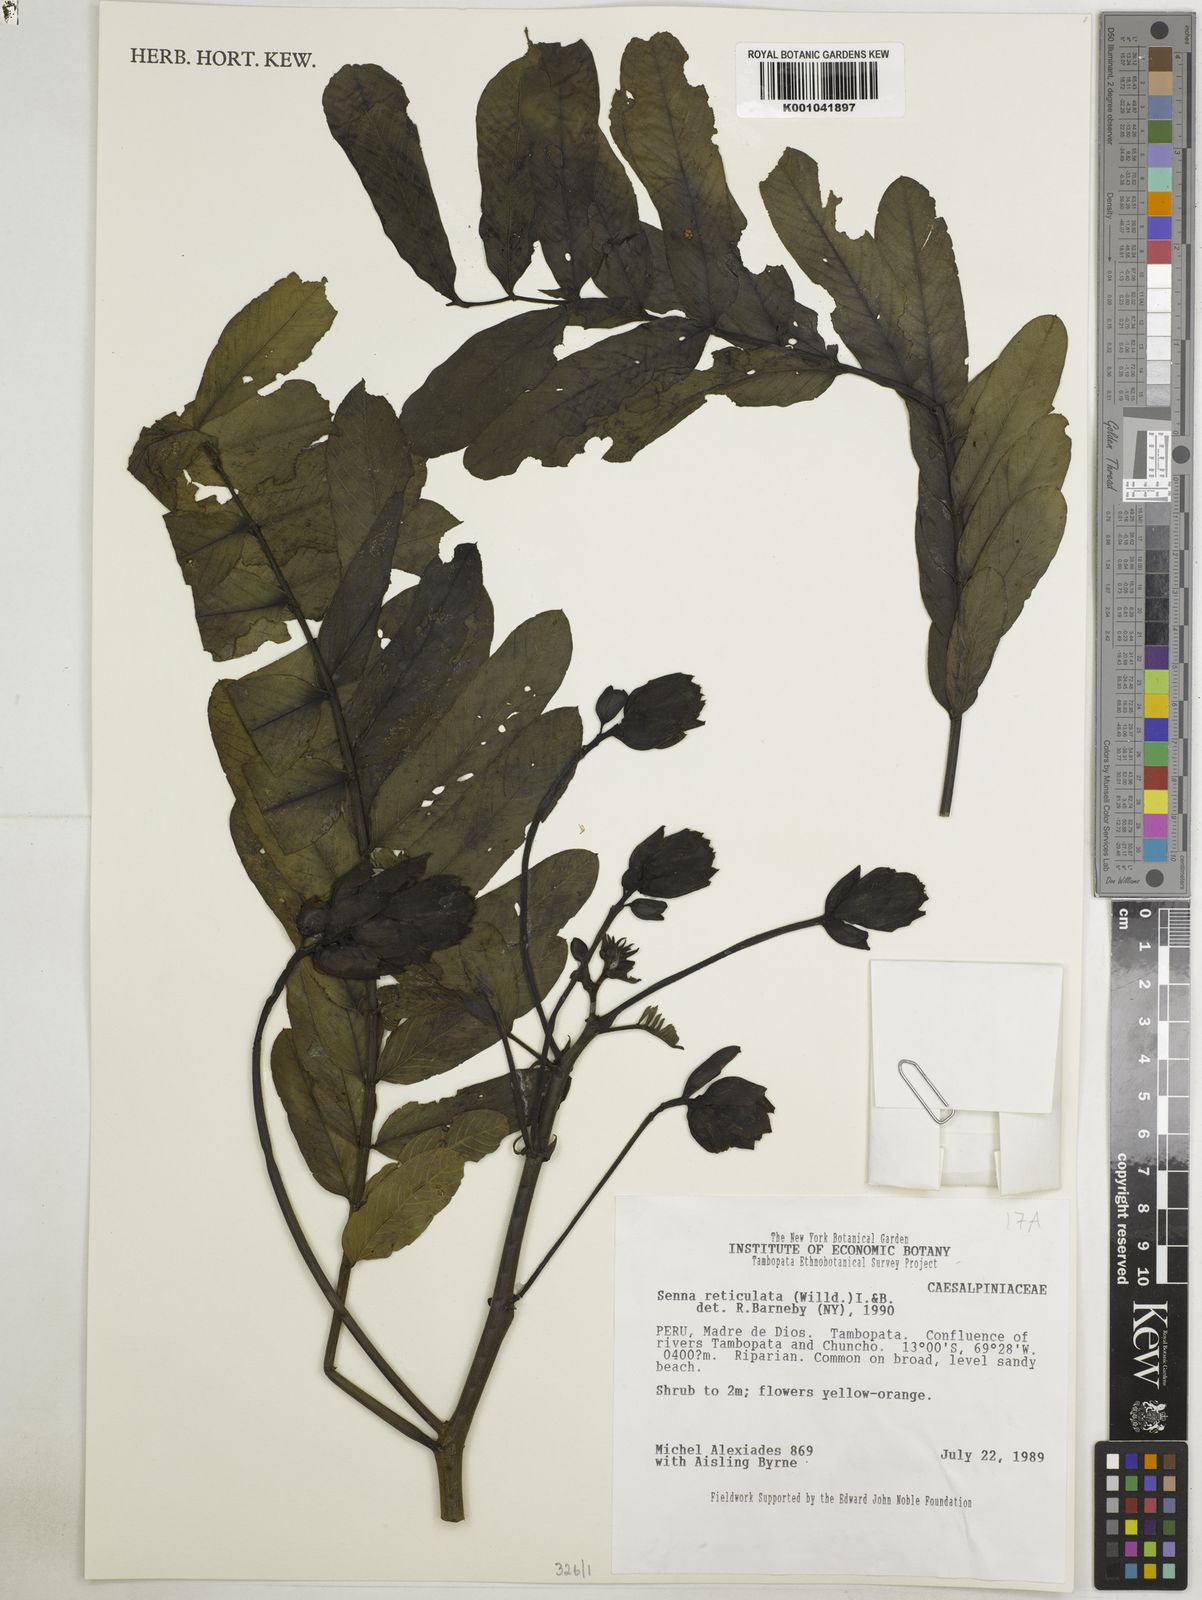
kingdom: Plantae
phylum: Tracheophyta
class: Magnoliopsida
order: Fabales
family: Fabaceae
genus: Senna
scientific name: Senna reticulata
